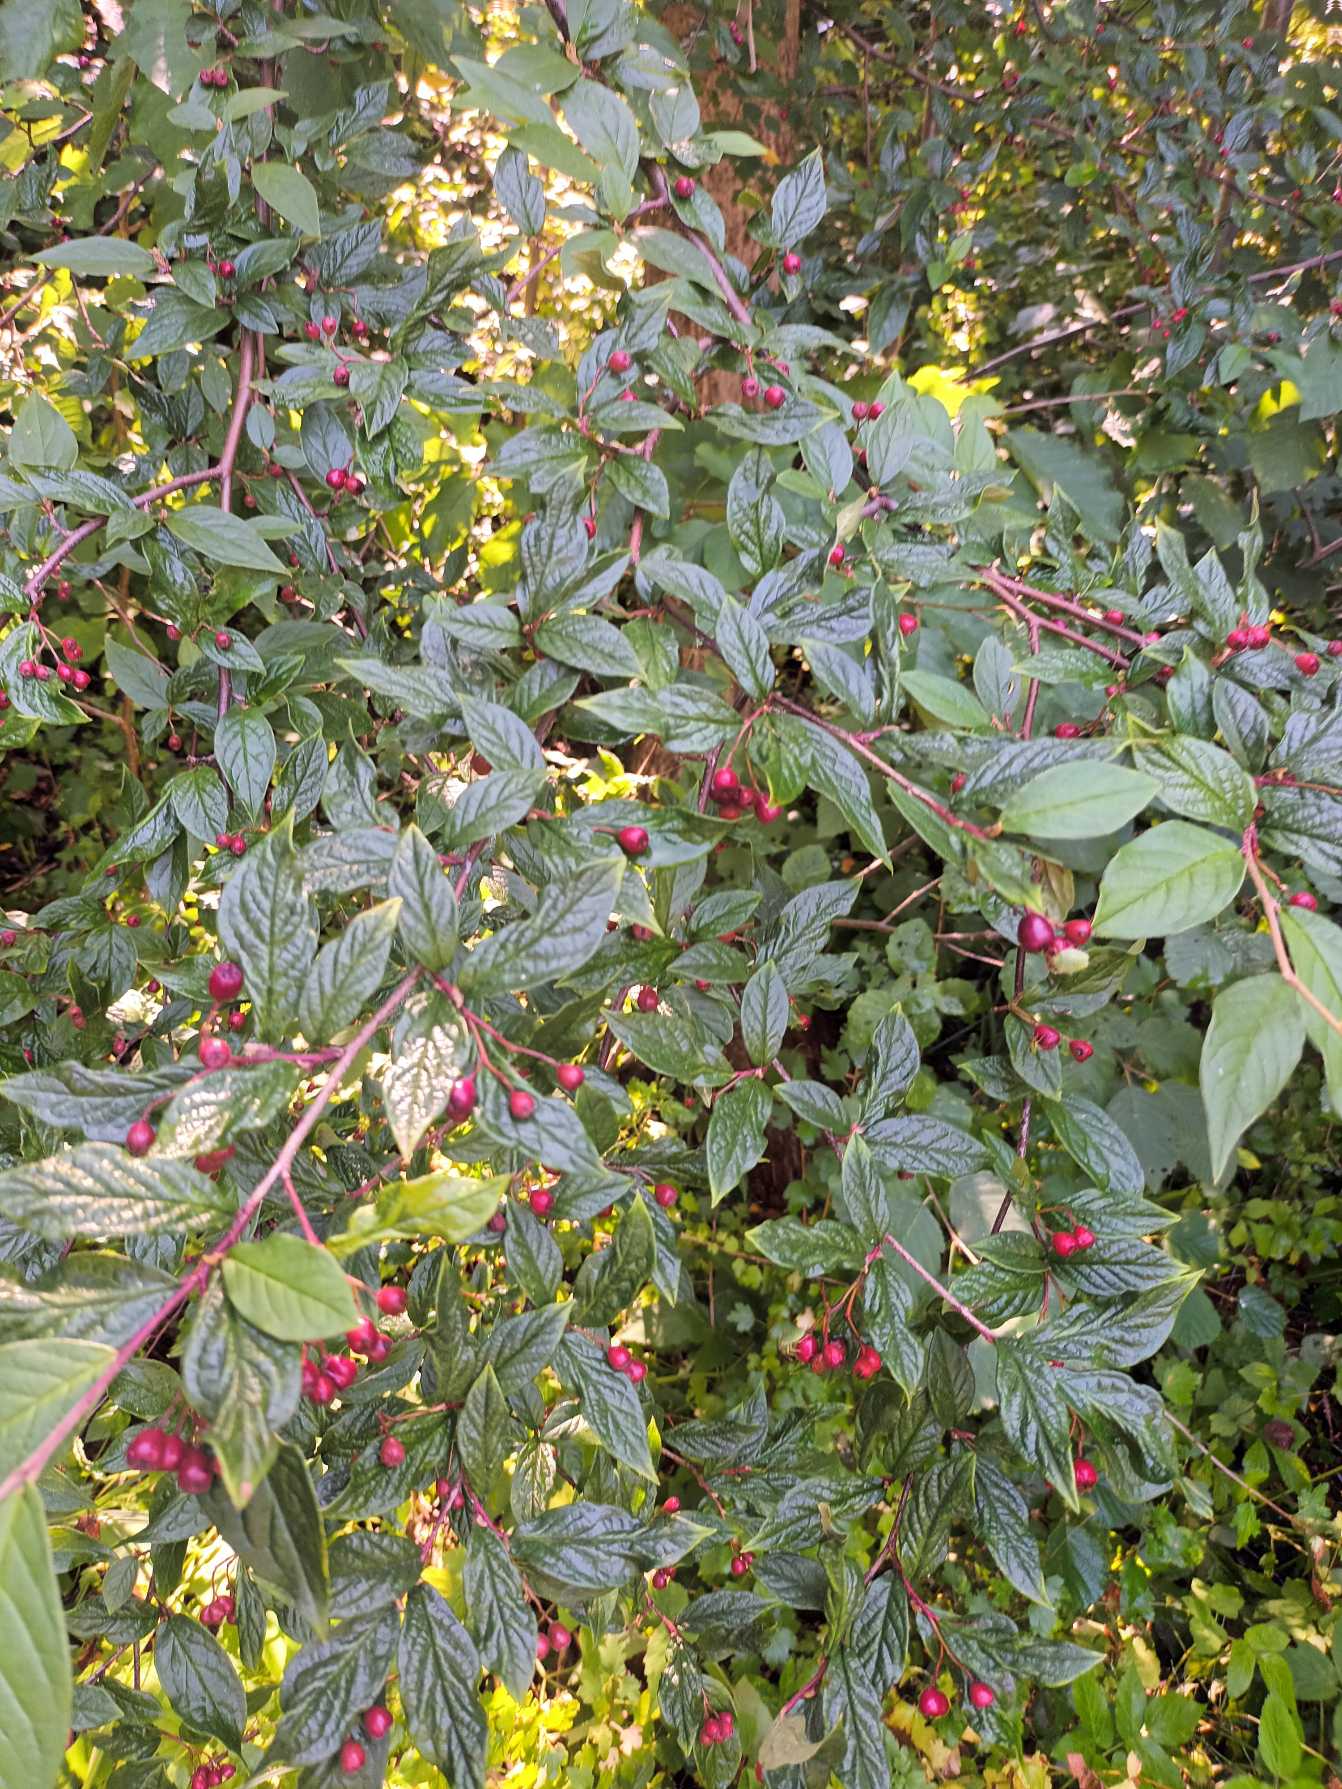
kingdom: Plantae
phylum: Tracheophyta
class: Magnoliopsida
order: Rosales
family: Rosaceae
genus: Cotoneaster
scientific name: Cotoneaster moupinensis
